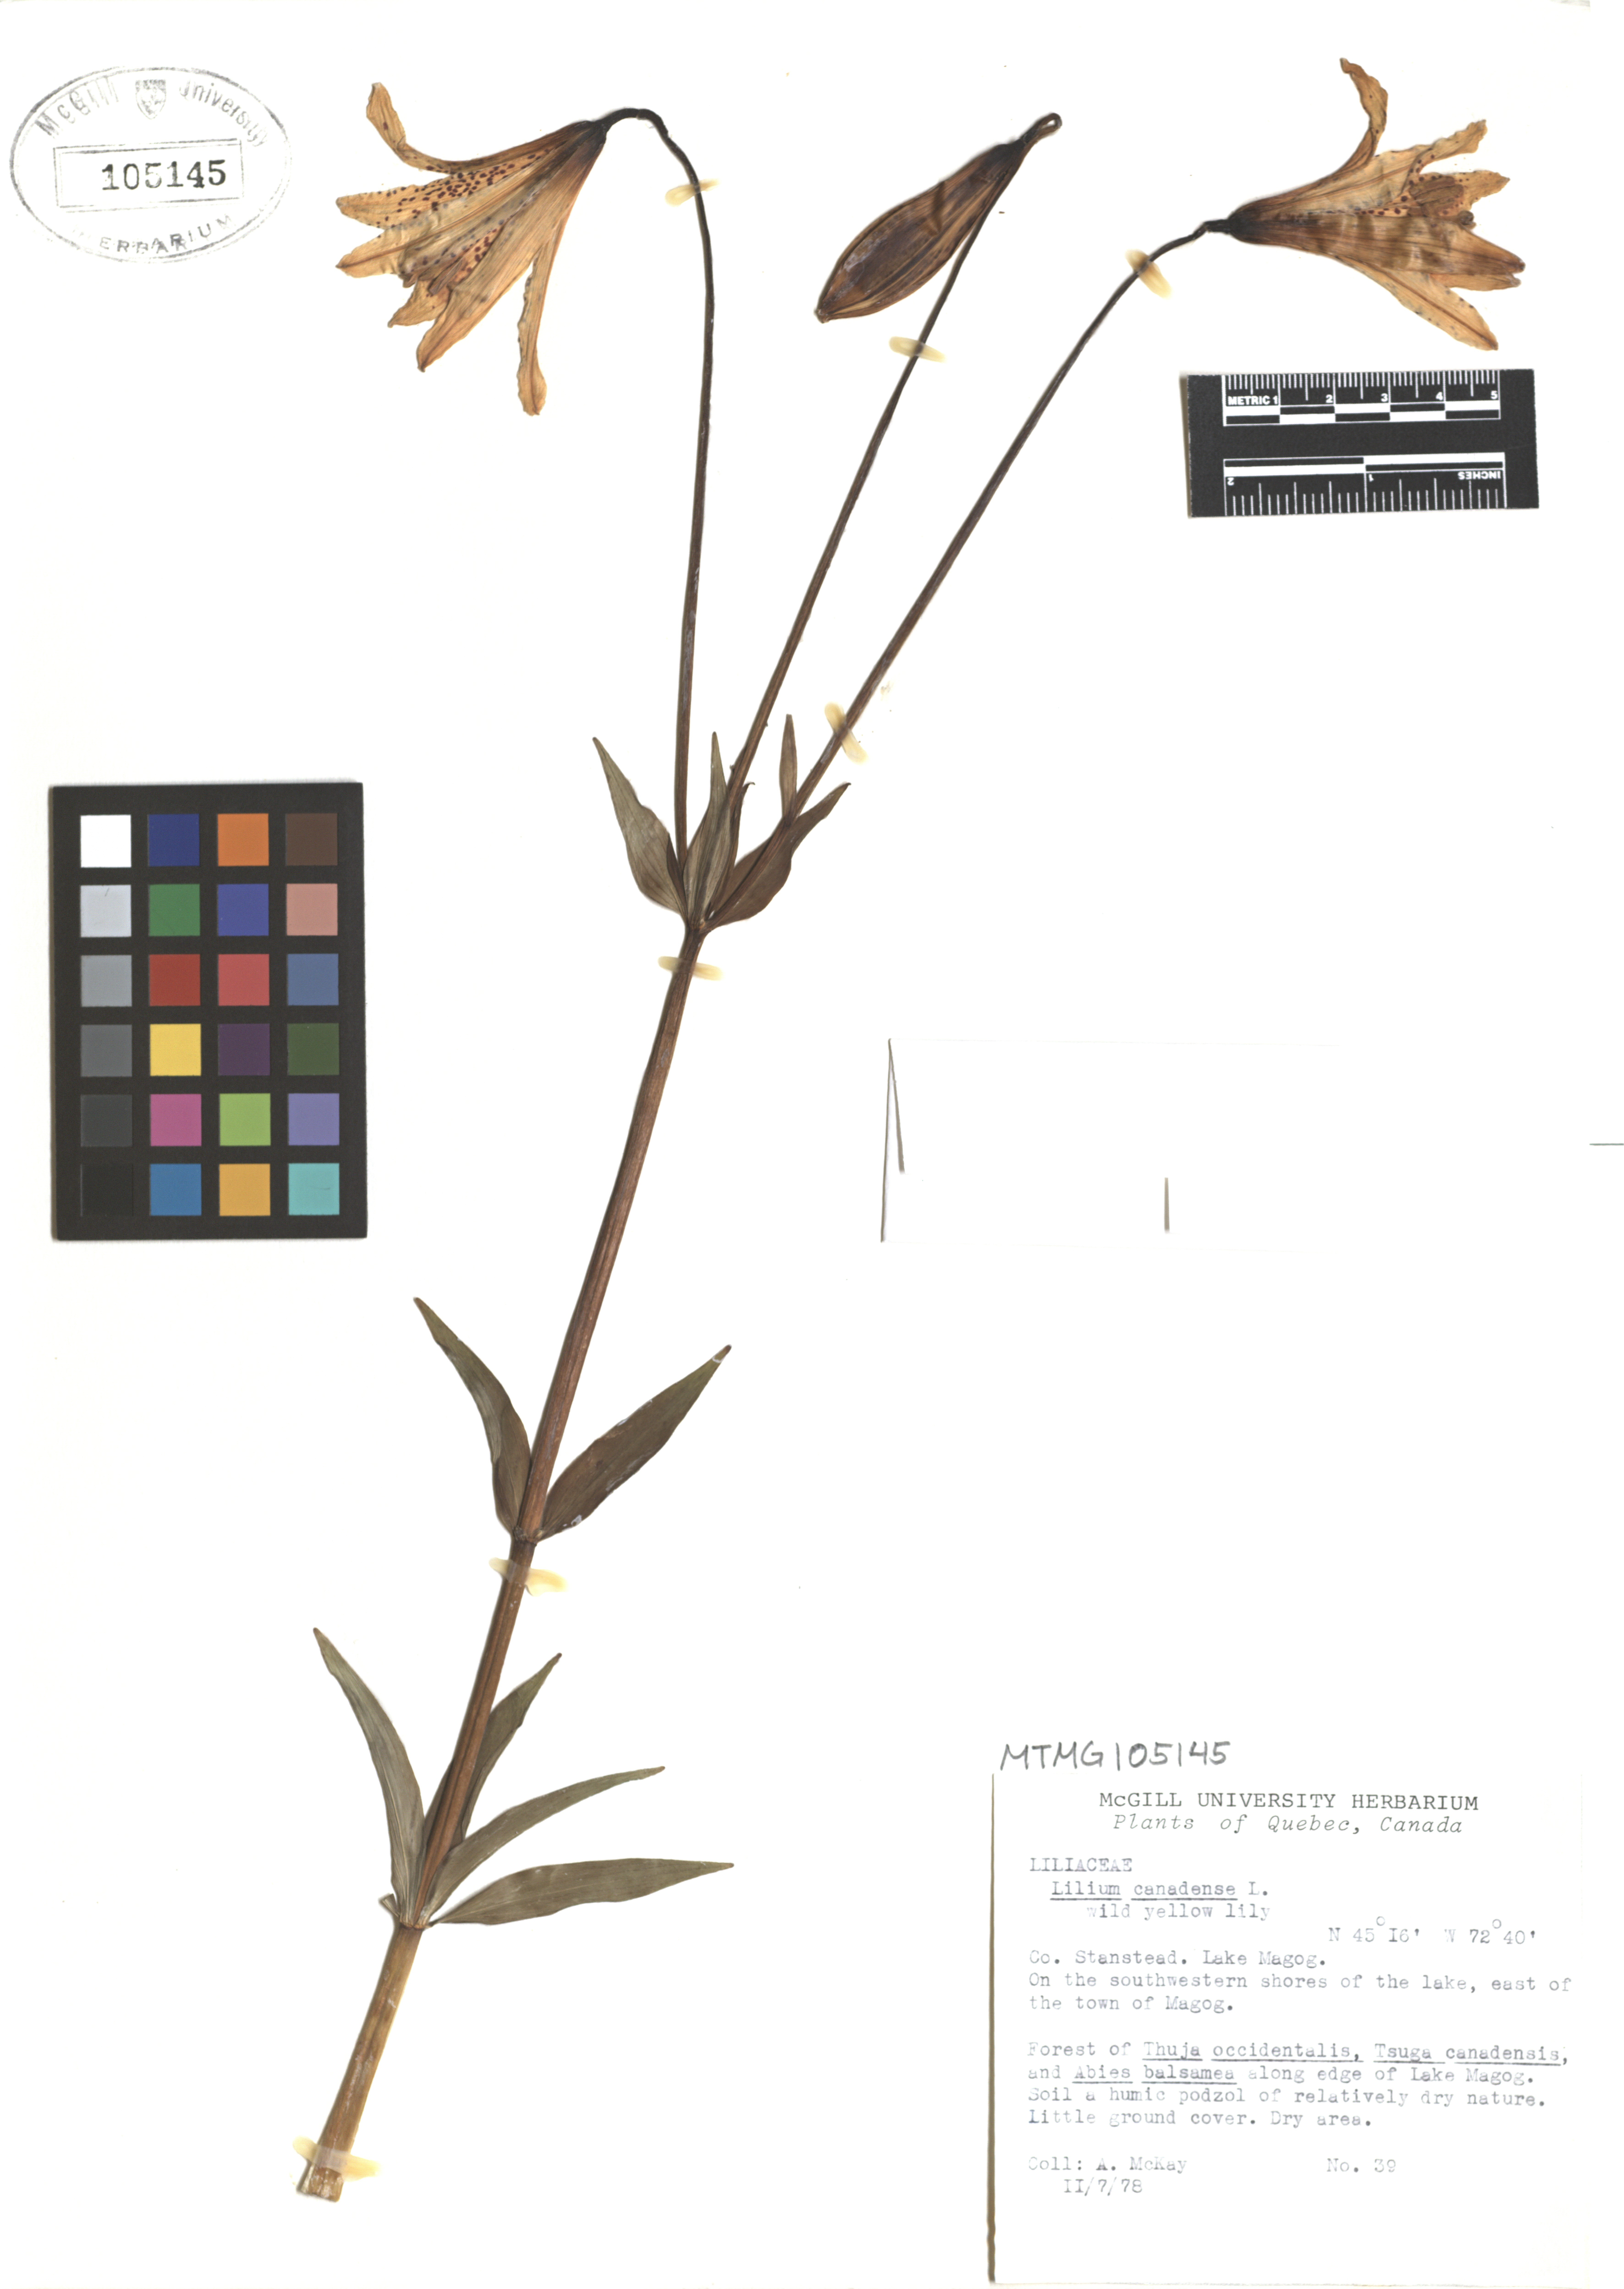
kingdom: Plantae
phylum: Tracheophyta
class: Liliopsida
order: Liliales
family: Liliaceae
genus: Lilium
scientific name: Lilium canadense
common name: Canada lily
